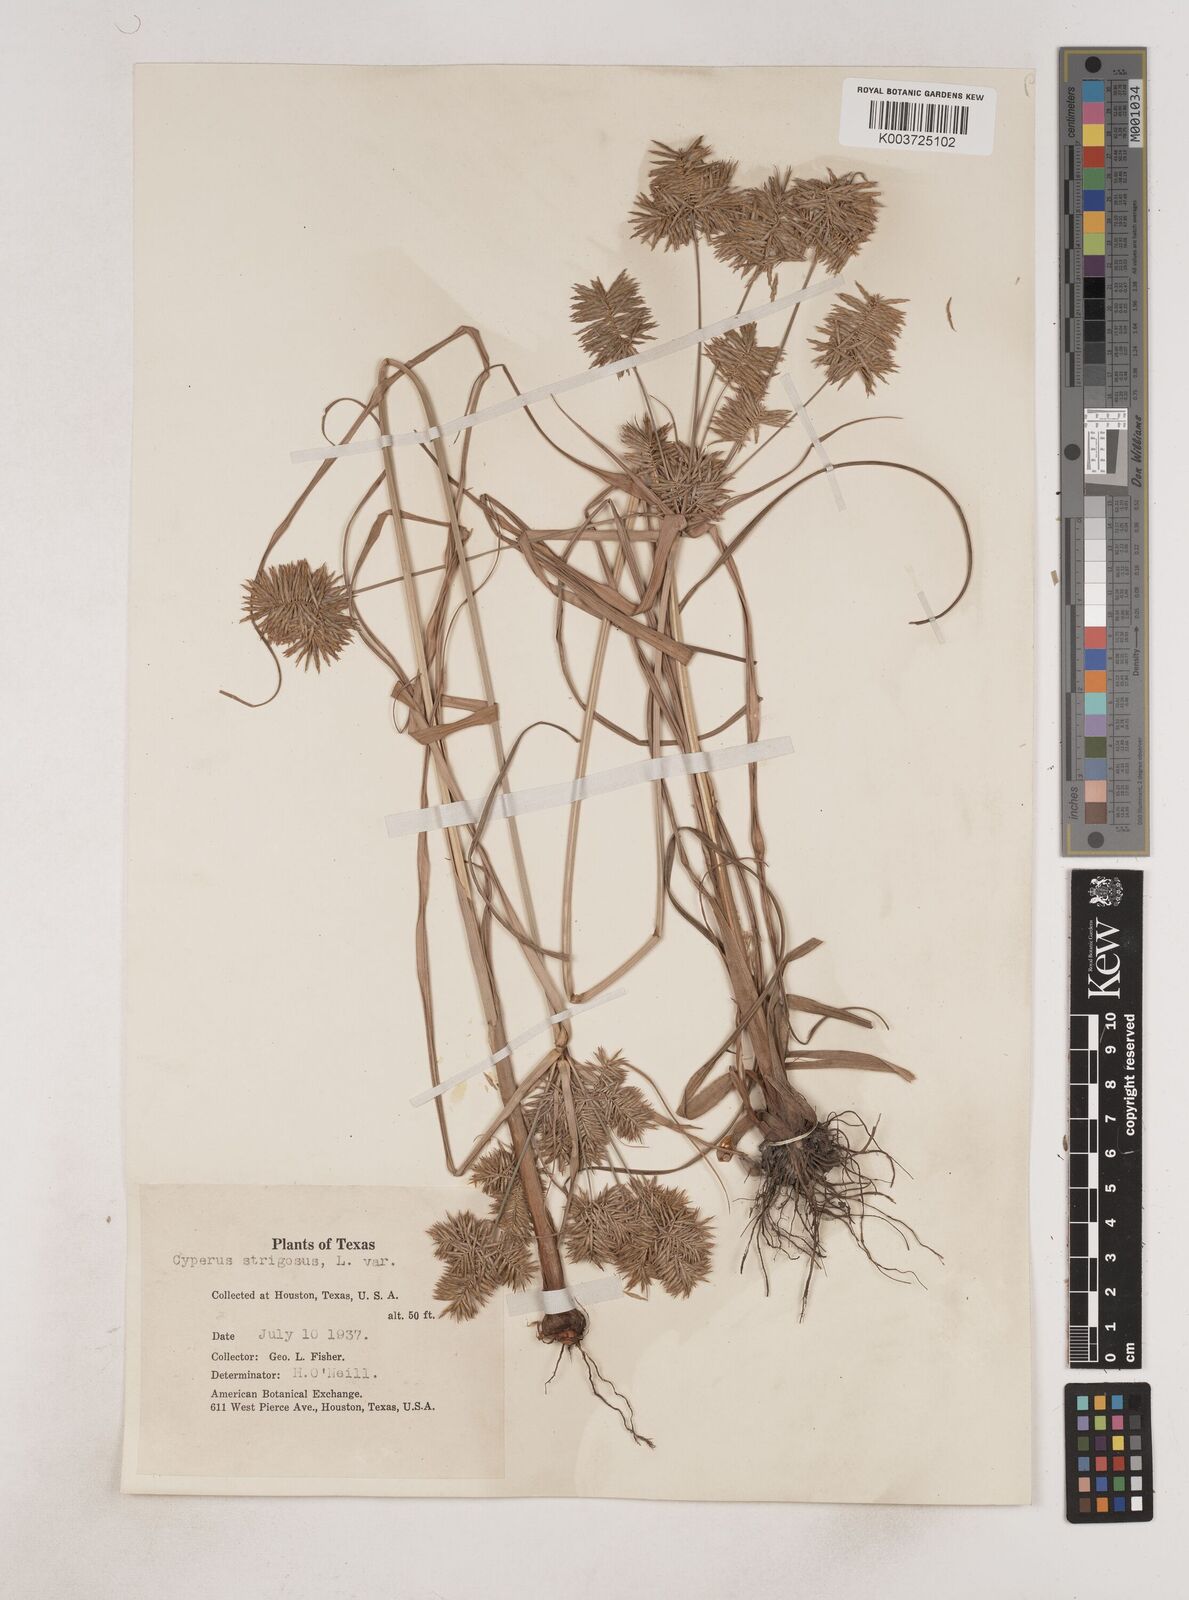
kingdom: Plantae
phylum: Tracheophyta
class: Liliopsida
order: Poales
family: Cyperaceae
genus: Cyperus
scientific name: Cyperus strigosus
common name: False nutsedge
